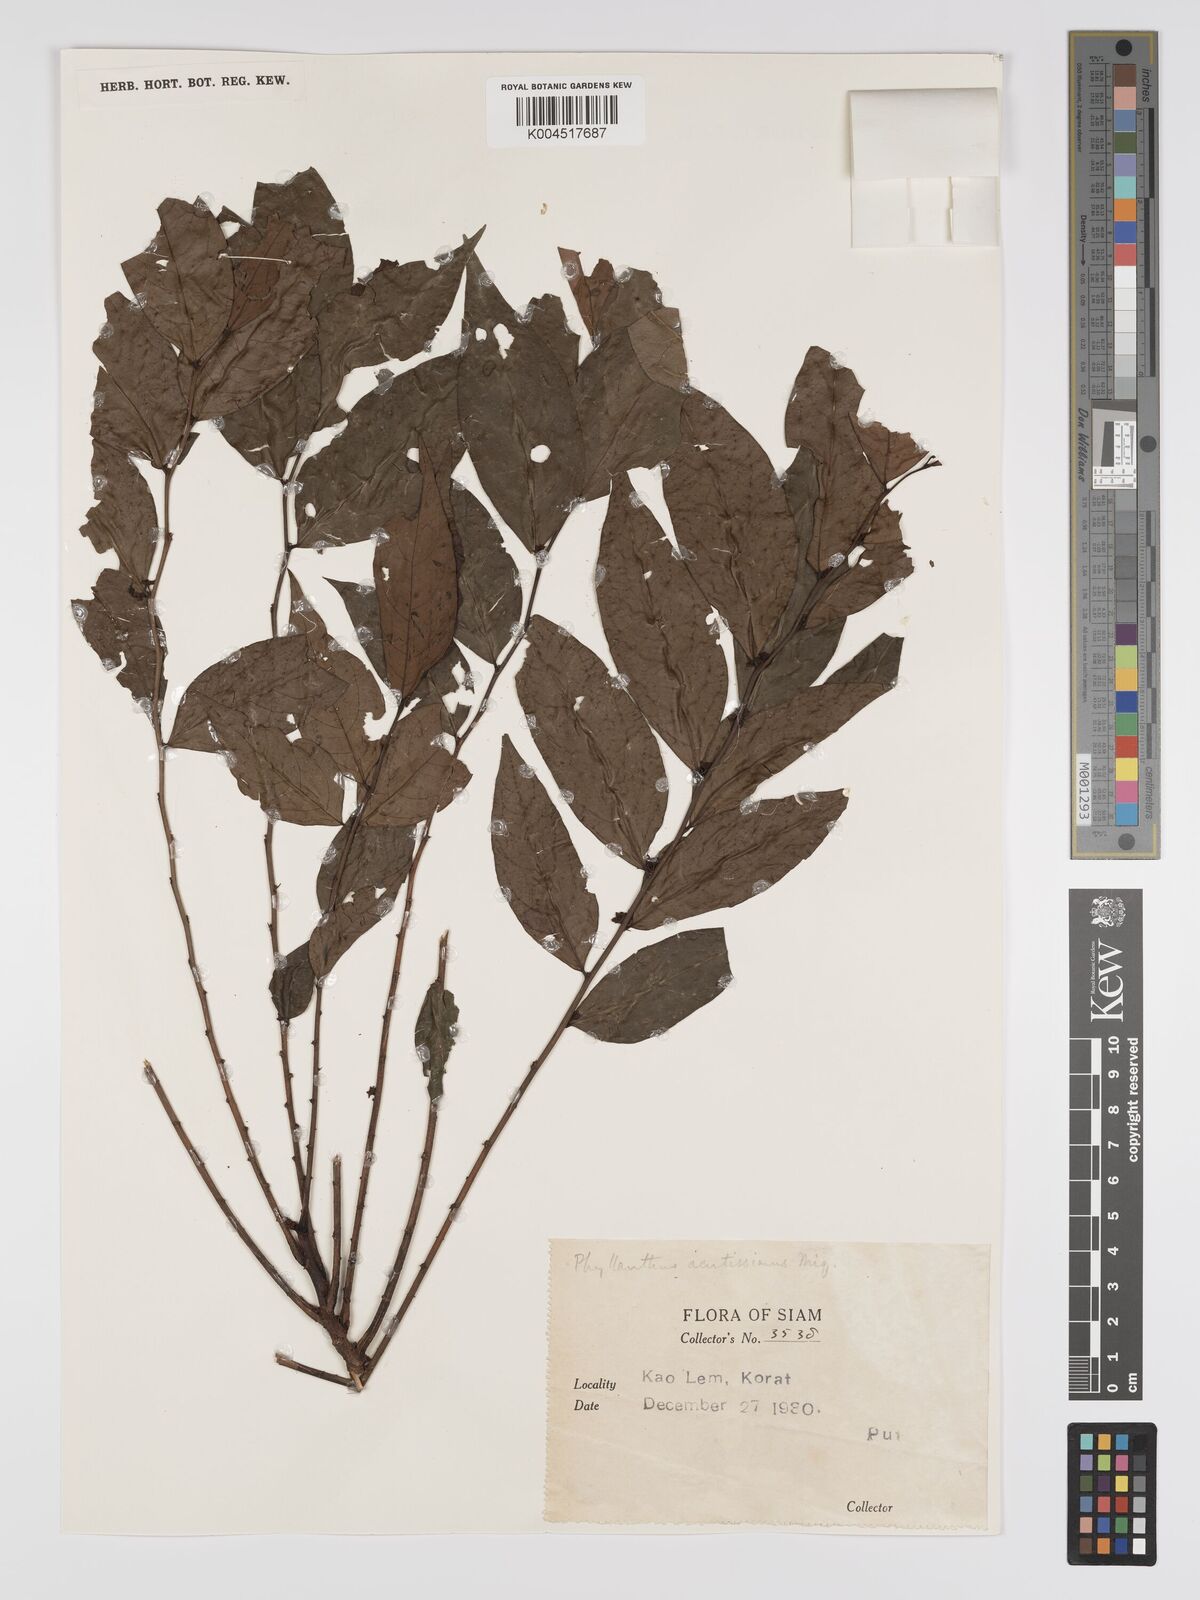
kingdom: Plantae
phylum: Tracheophyta
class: Magnoliopsida
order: Malpighiales
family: Phyllanthaceae
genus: Phyllanthus
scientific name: Phyllanthus acutissimus
